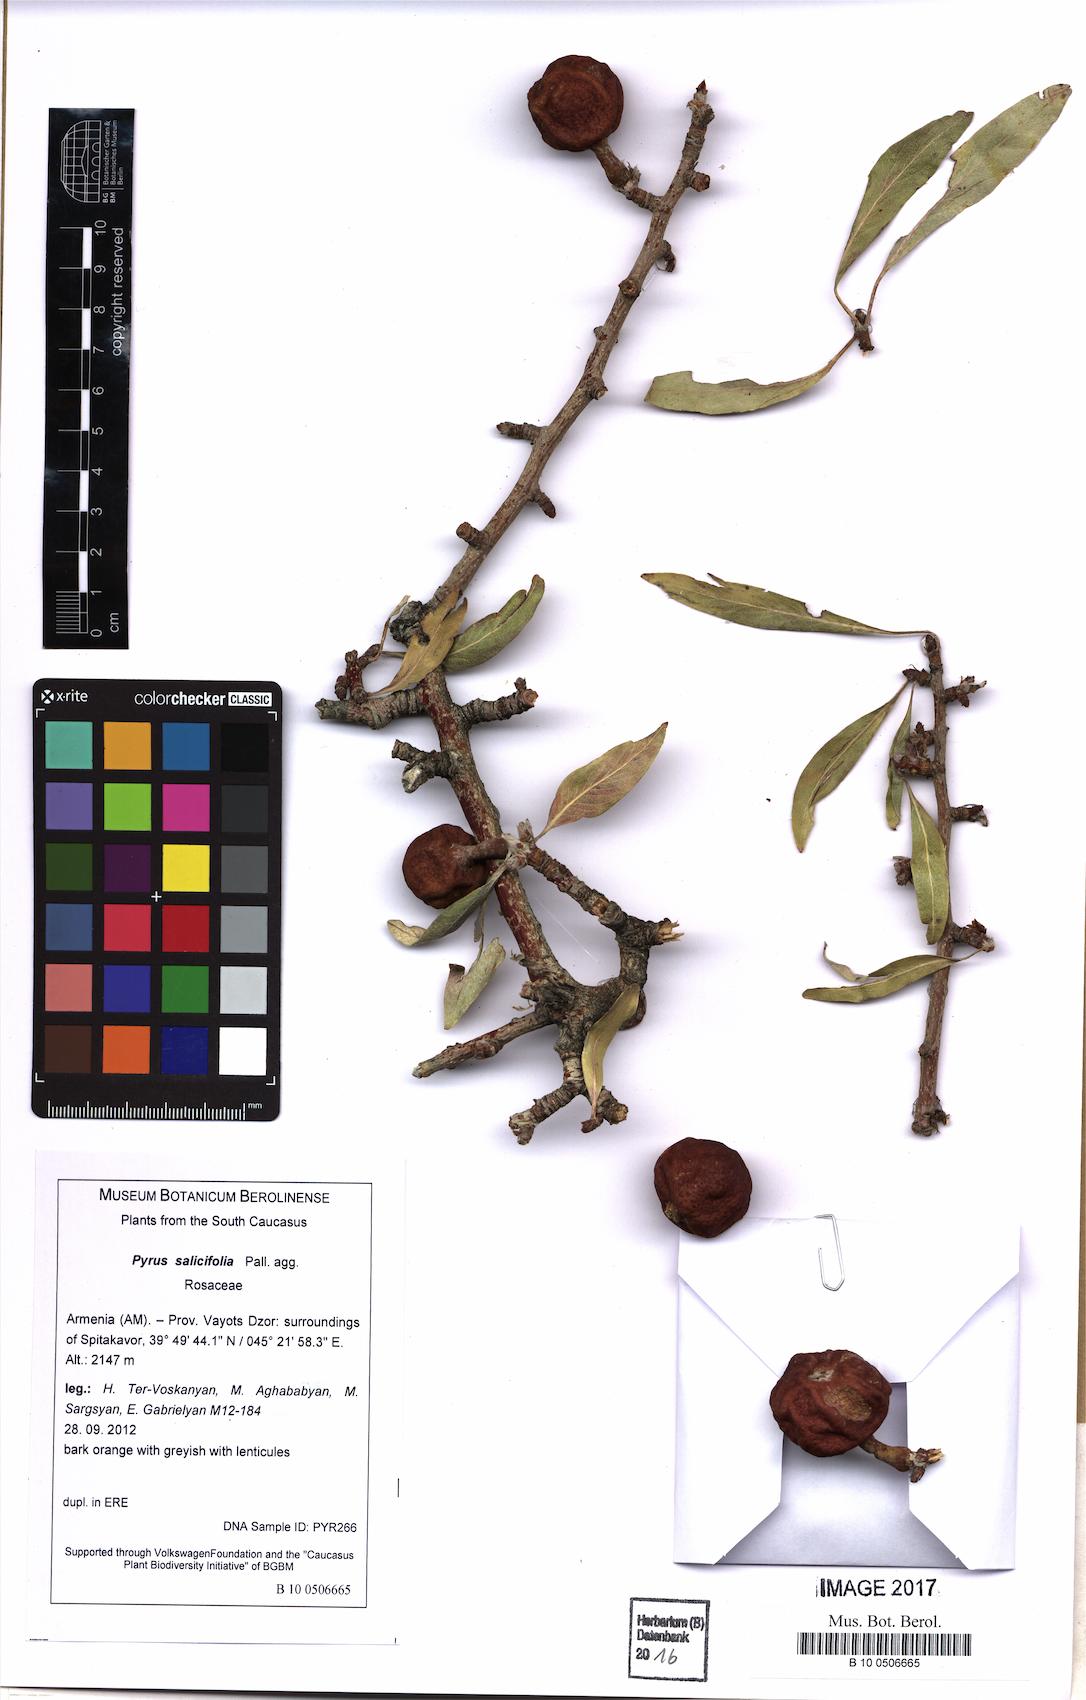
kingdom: Plantae
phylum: Tracheophyta
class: Magnoliopsida
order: Rosales
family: Rosaceae
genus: Pyrus
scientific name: Pyrus salicifolia
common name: Willow-leaved pear
